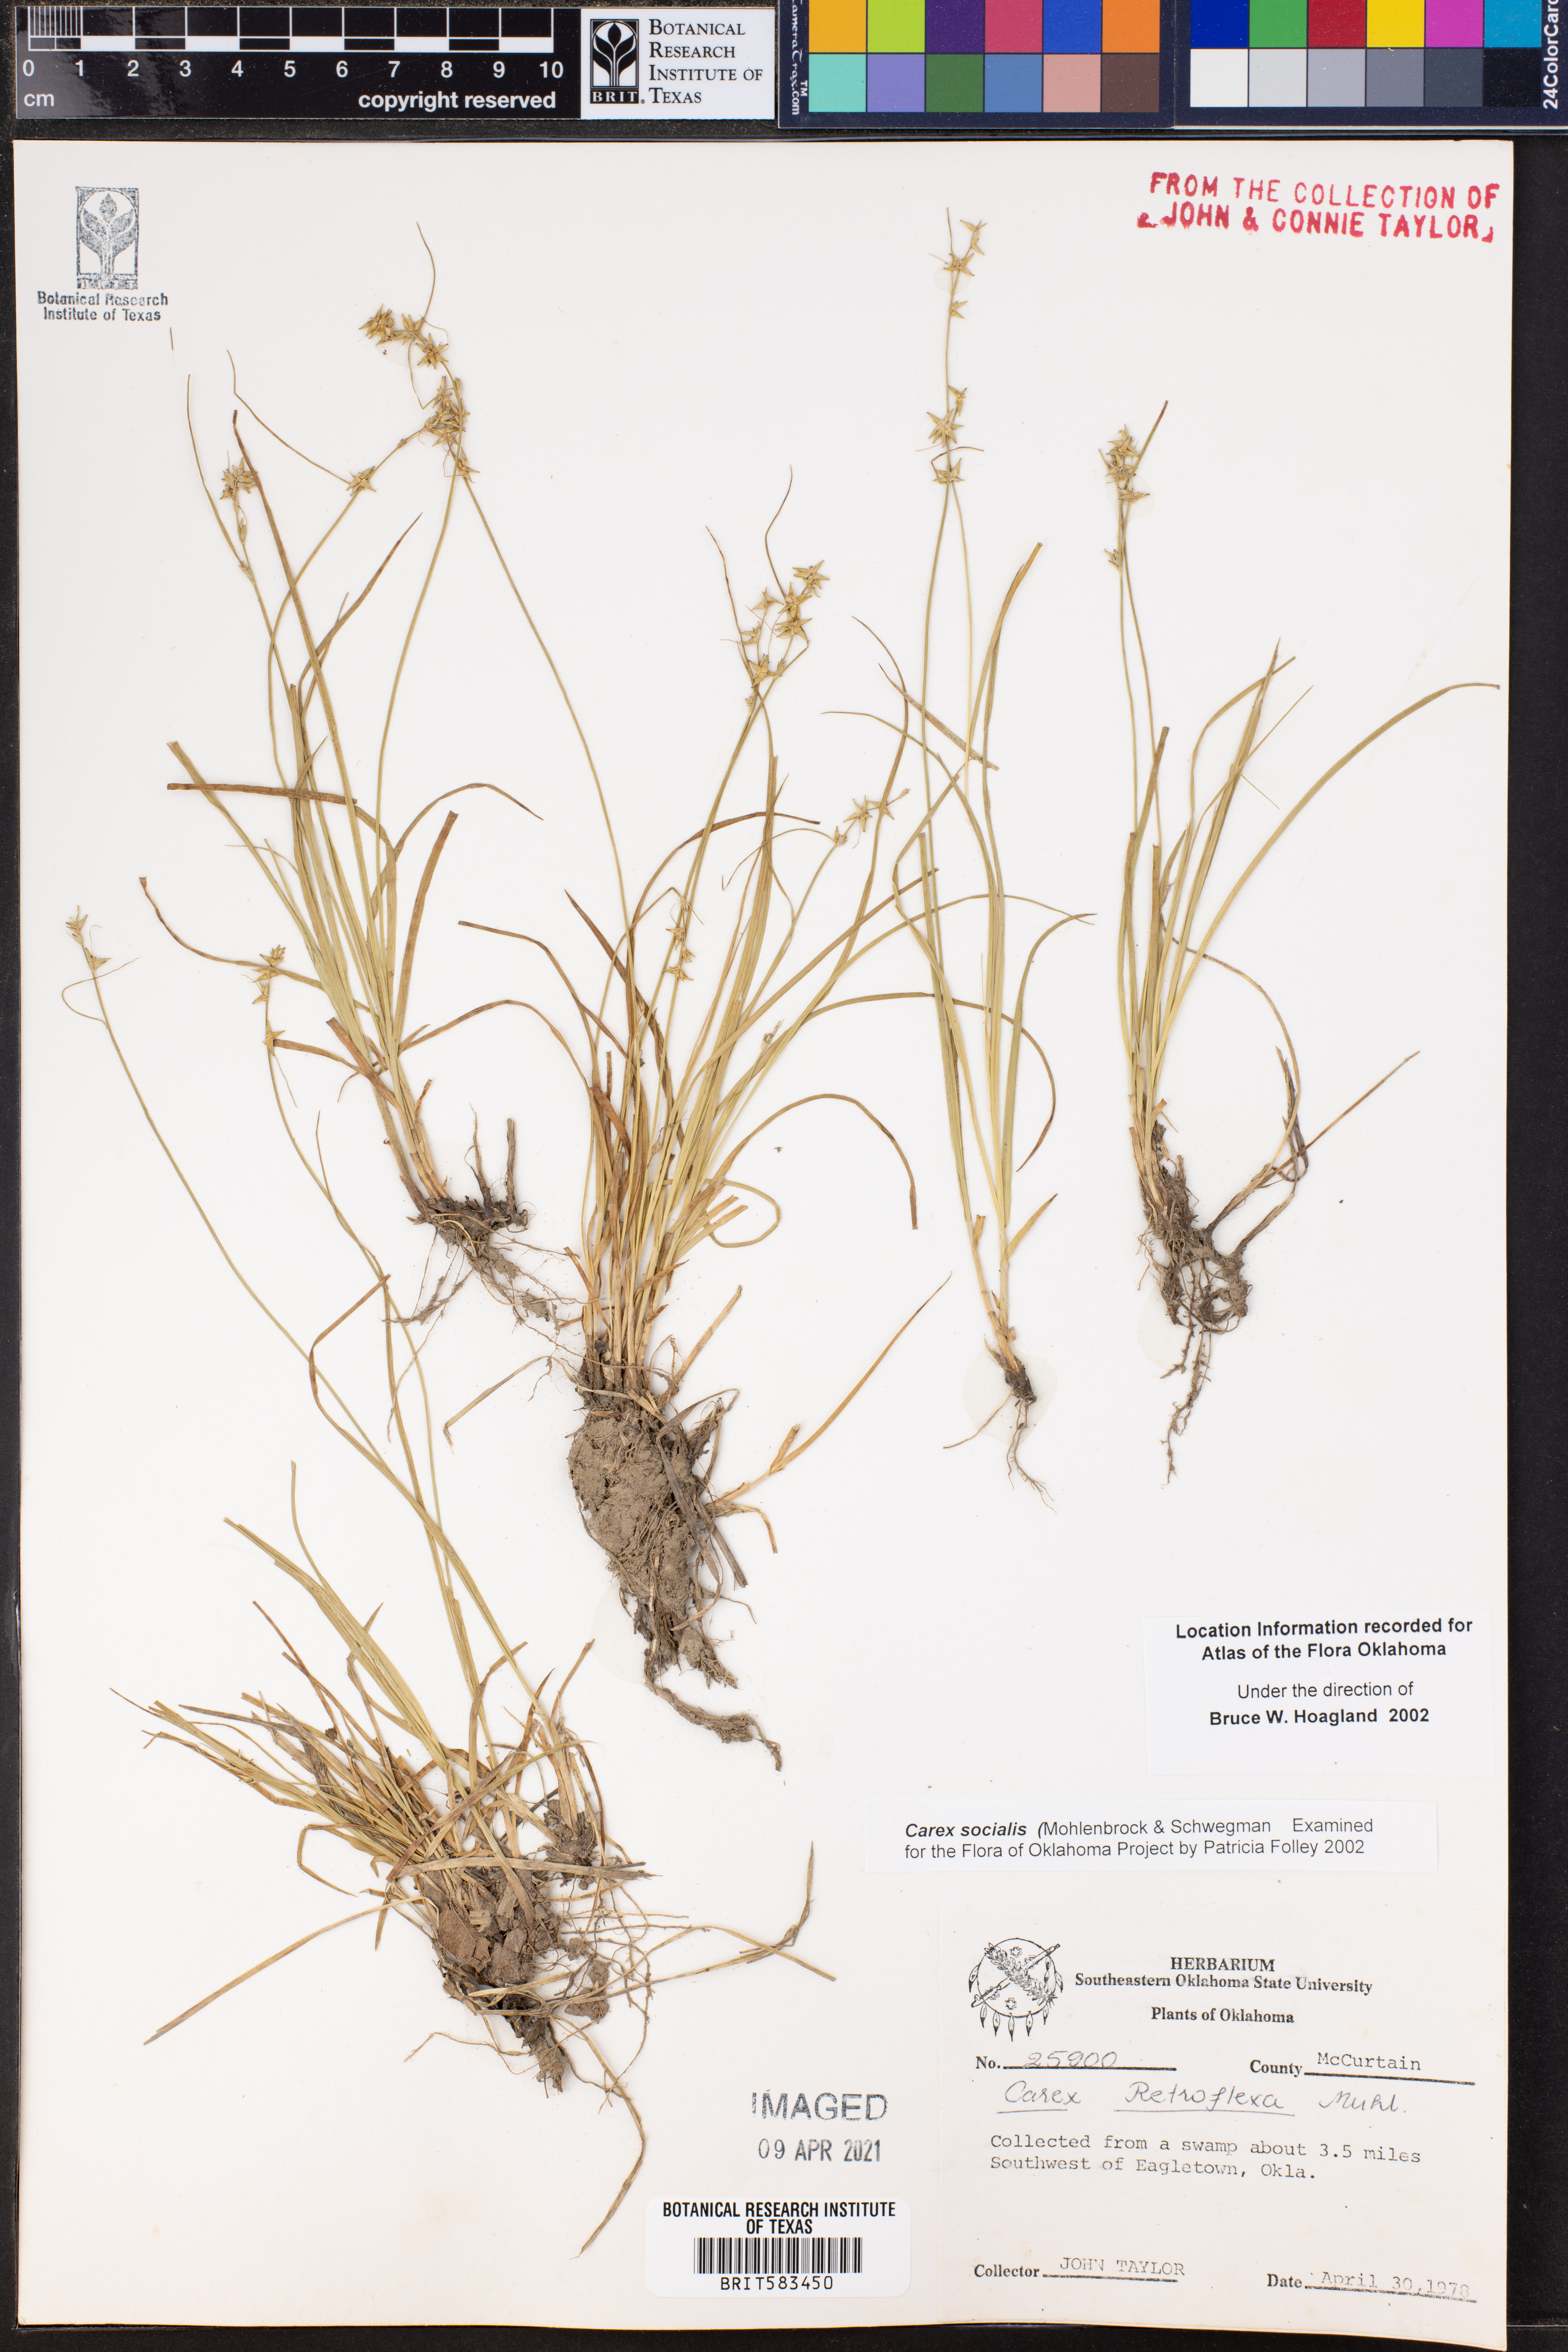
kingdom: Plantae
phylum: Tracheophyta
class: Liliopsida
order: Poales
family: Cyperaceae
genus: Carex
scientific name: Carex socialis
